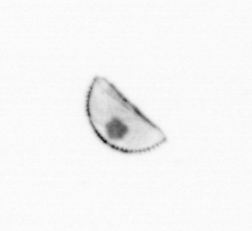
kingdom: Chromista
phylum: Ochrophyta
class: Bacillariophyceae
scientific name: Bacillariophyceae
